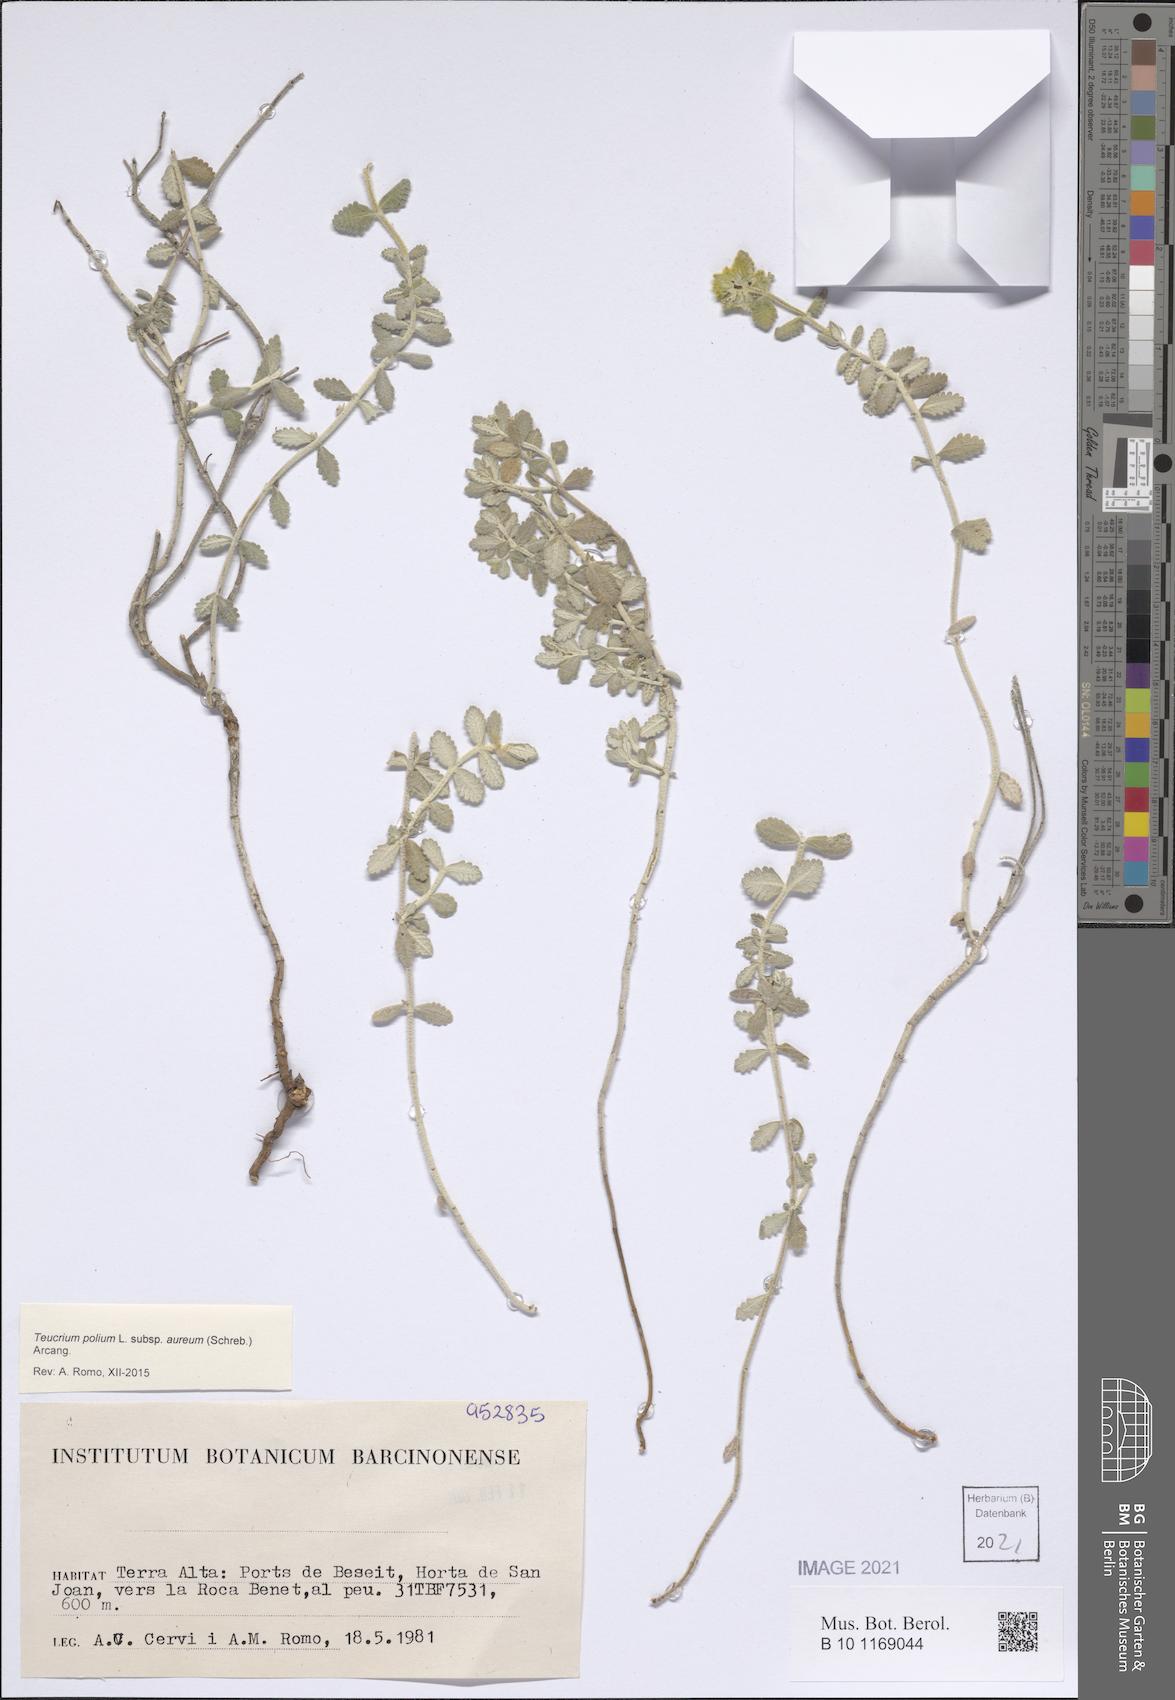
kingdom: Plantae
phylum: Tracheophyta
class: Magnoliopsida
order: Lamiales
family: Lamiaceae
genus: Teucrium
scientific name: Teucrium aureum
